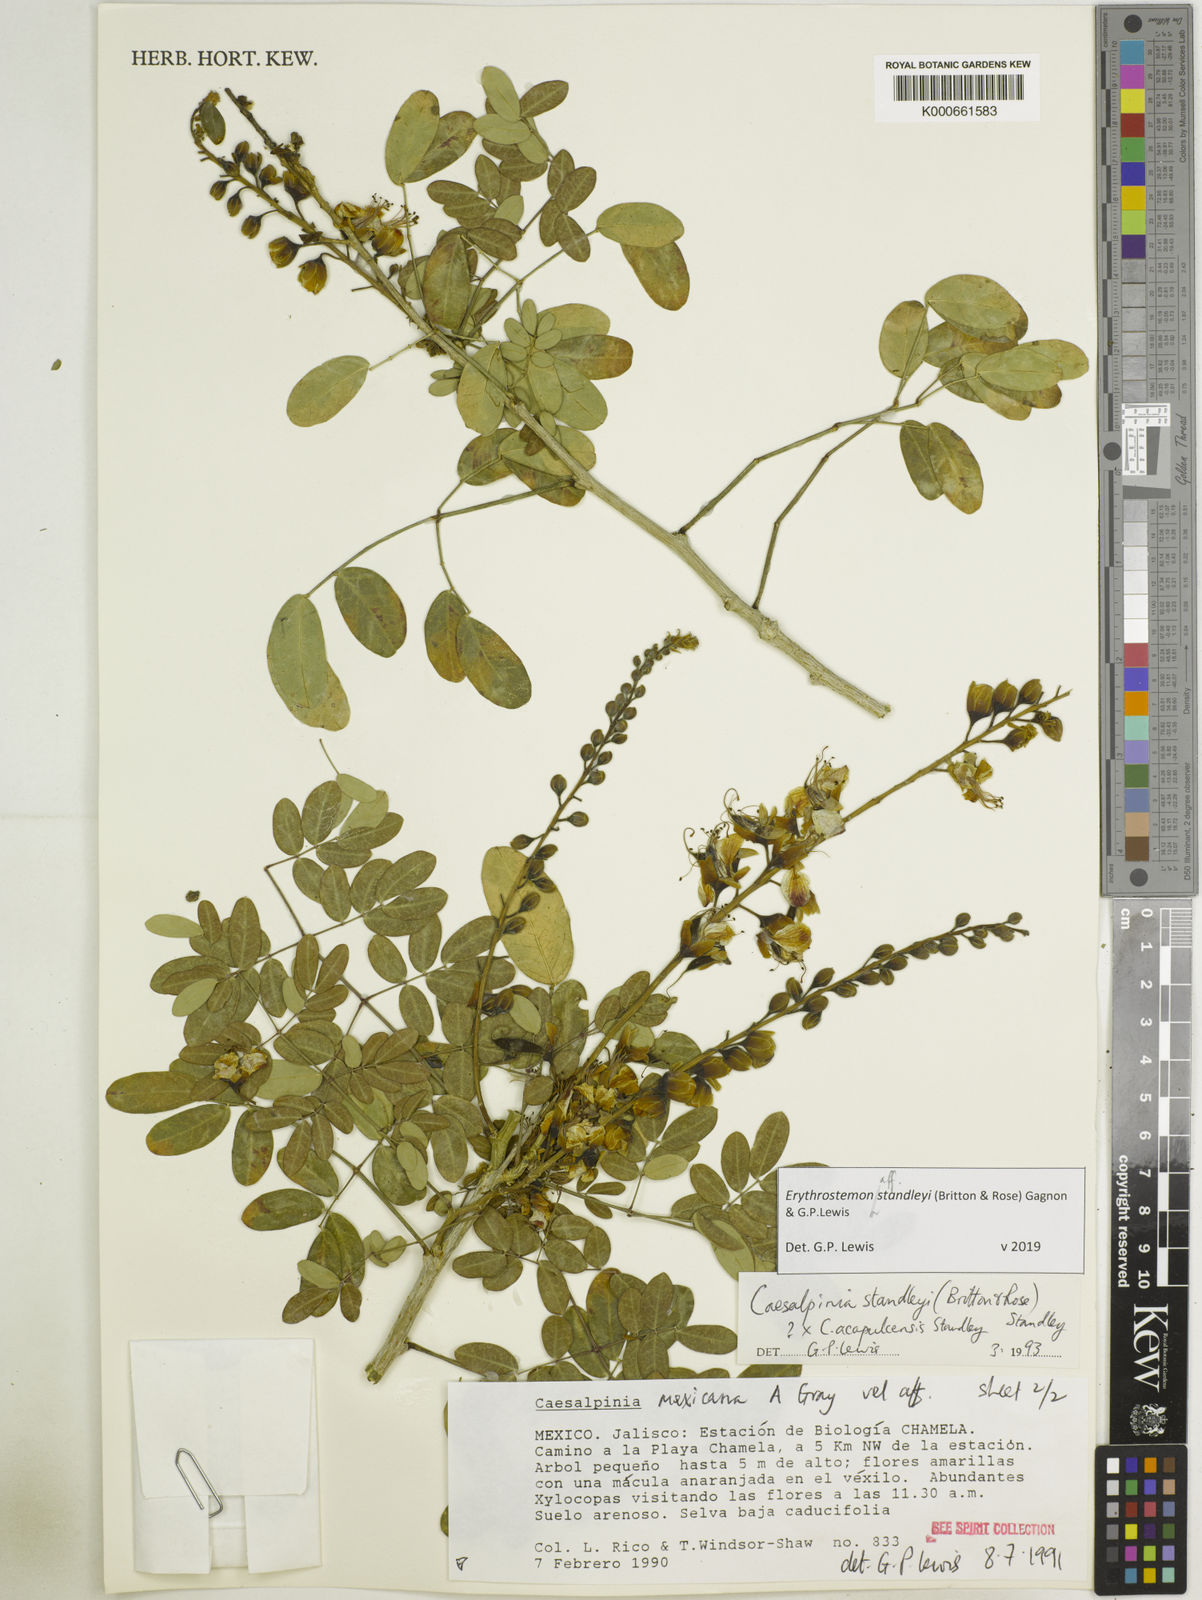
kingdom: Plantae
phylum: Tracheophyta
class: Magnoliopsida
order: Fabales
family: Fabaceae
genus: Erythrostemon
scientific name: Erythrostemon standleyi
